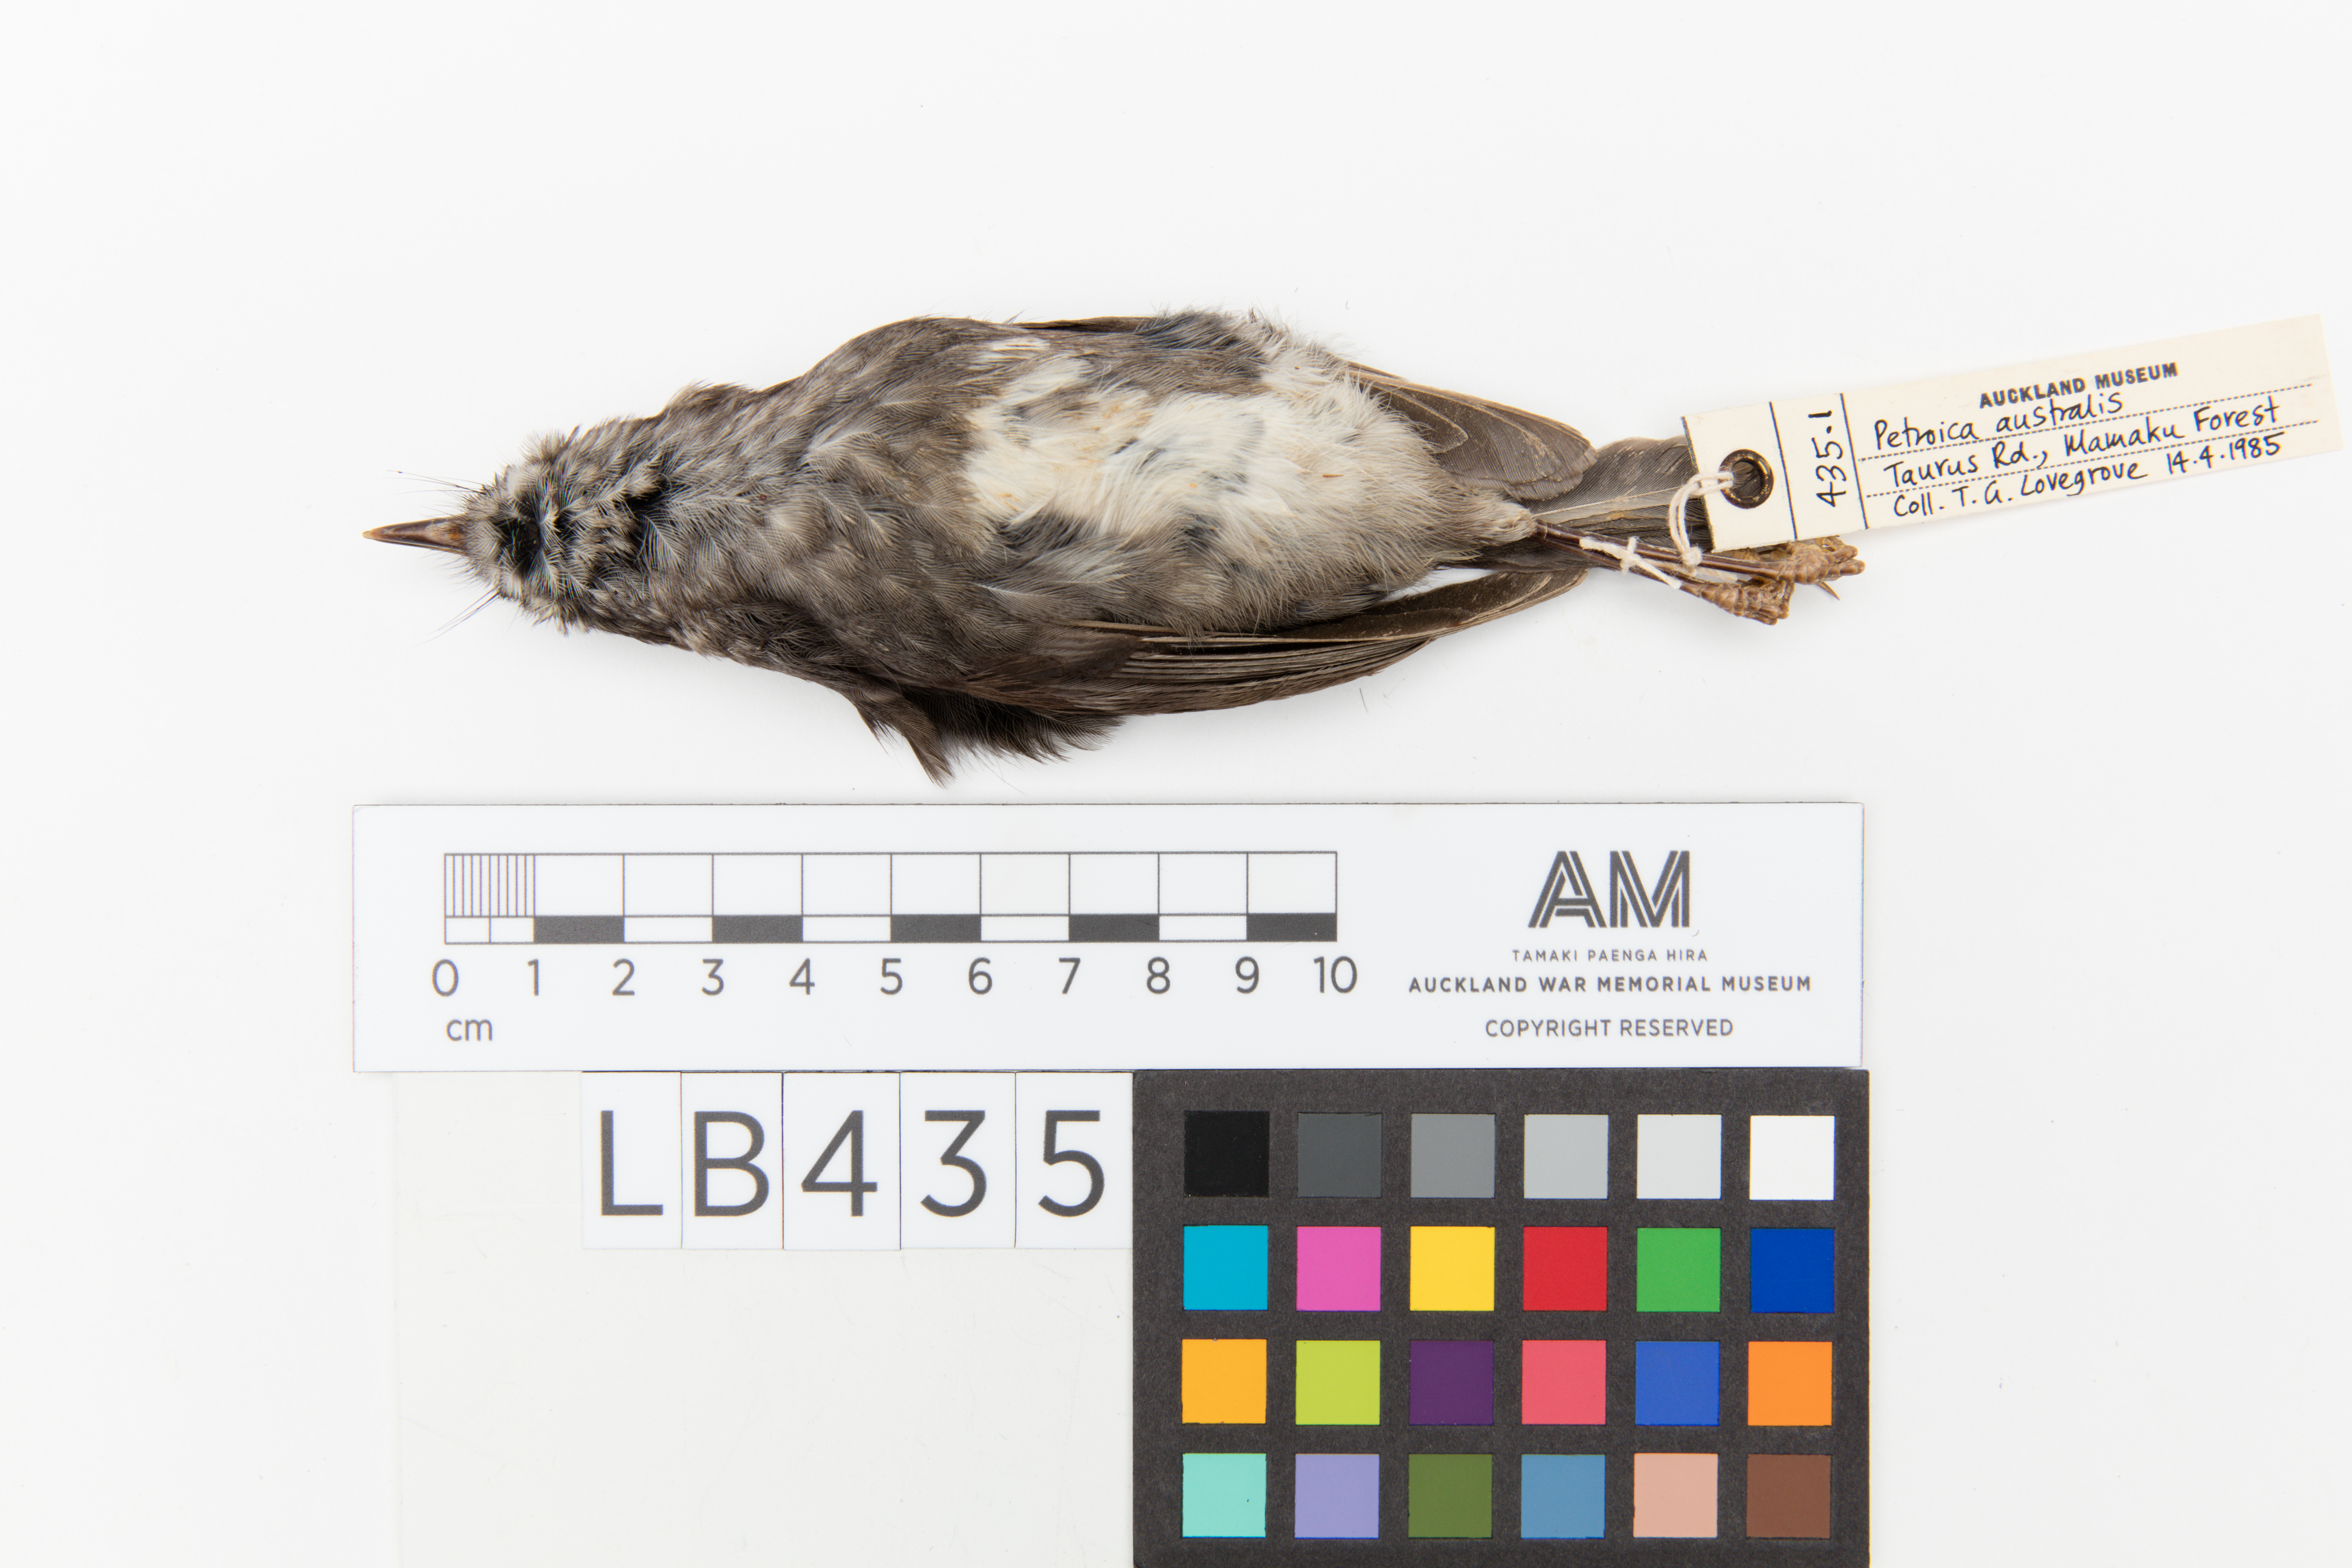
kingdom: Animalia
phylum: Chordata
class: Aves
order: Passeriformes
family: Petroicidae
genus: Petroica
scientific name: Petroica australis
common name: New zealand robin
